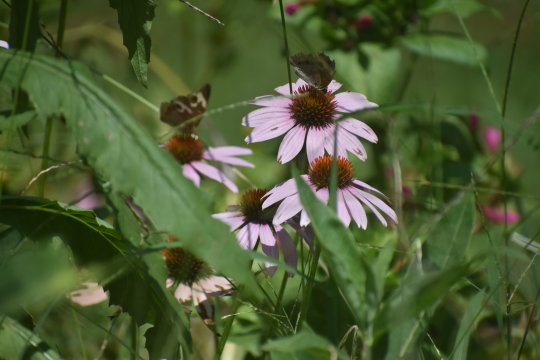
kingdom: Animalia
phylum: Arthropoda
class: Insecta
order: Lepidoptera
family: Nymphalidae
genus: Junonia
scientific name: Junonia coenia
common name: Common Buckeye
